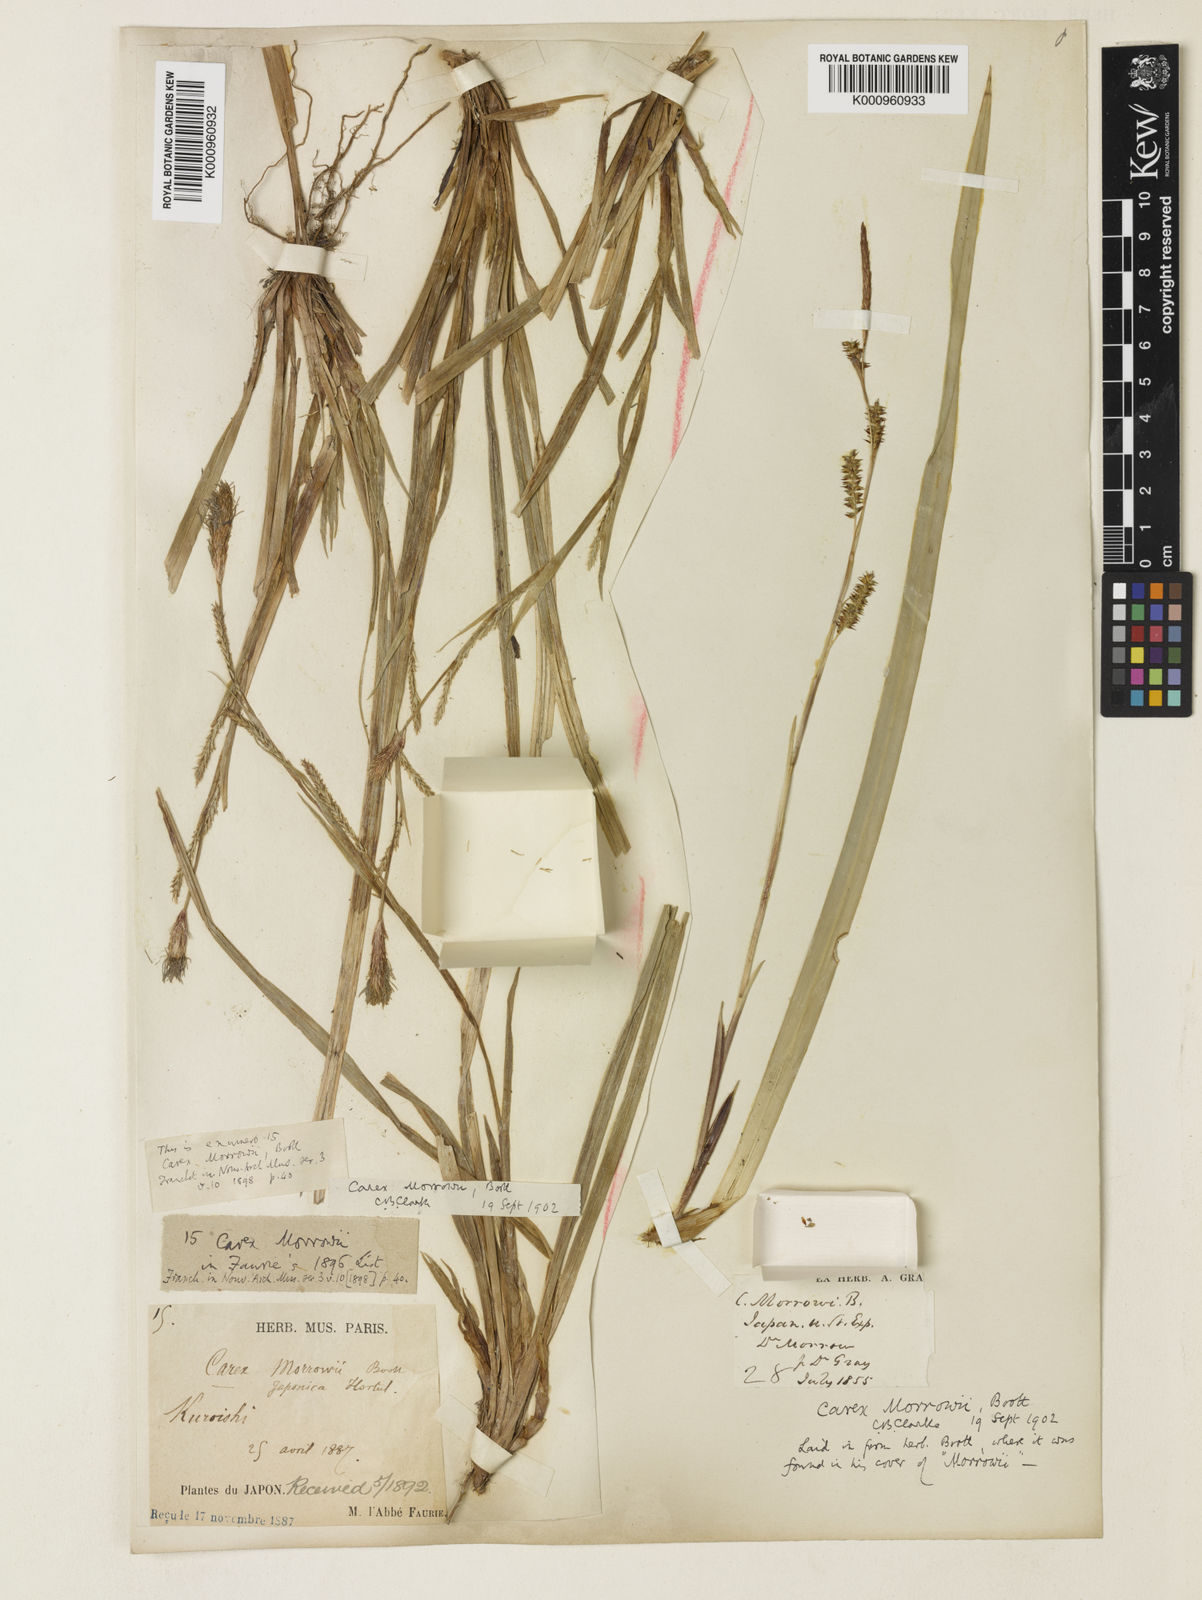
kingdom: Plantae
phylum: Tracheophyta
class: Liliopsida
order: Poales
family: Cyperaceae
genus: Carex
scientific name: Carex morrowii
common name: Japanese sedge
